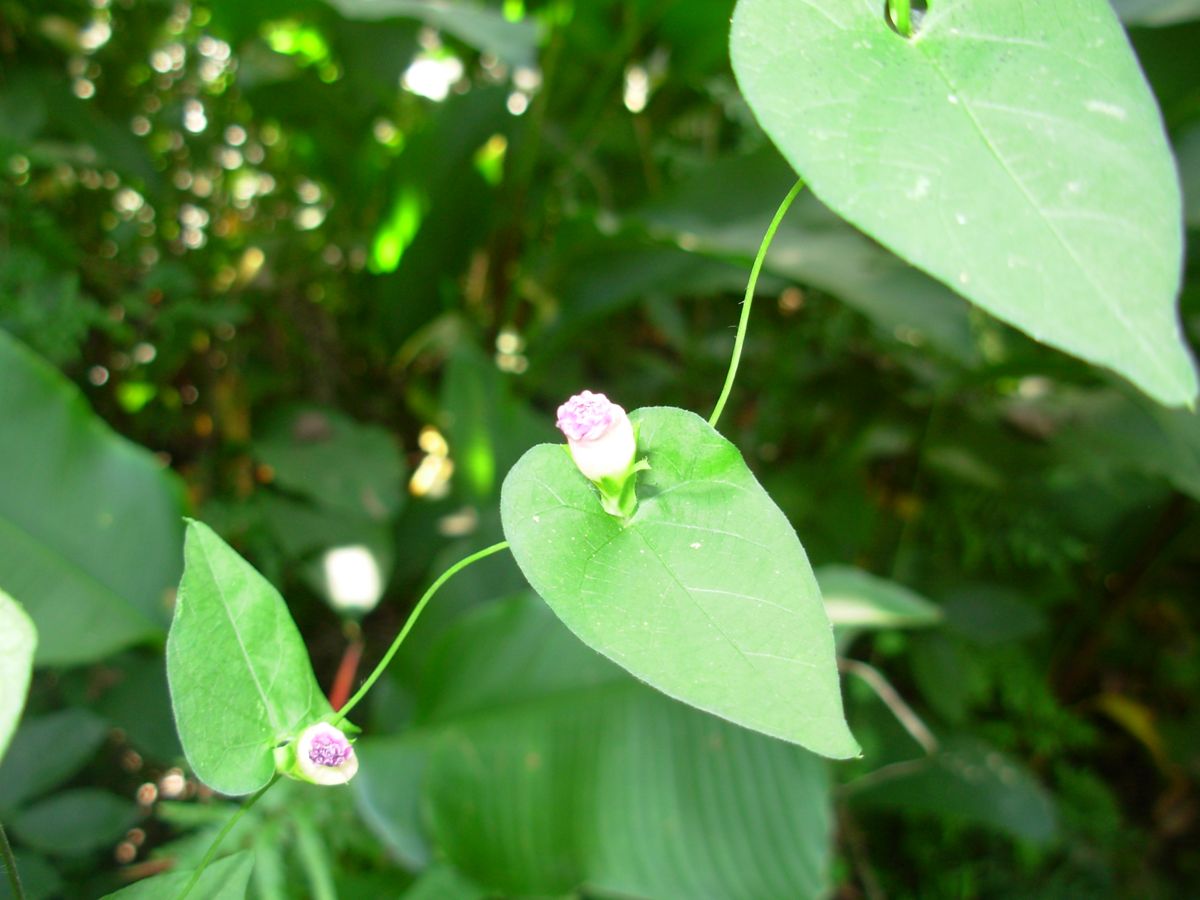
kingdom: Plantae
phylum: Tracheophyta
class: Magnoliopsida
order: Solanales
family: Convolvulaceae
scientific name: Convolvulaceae
